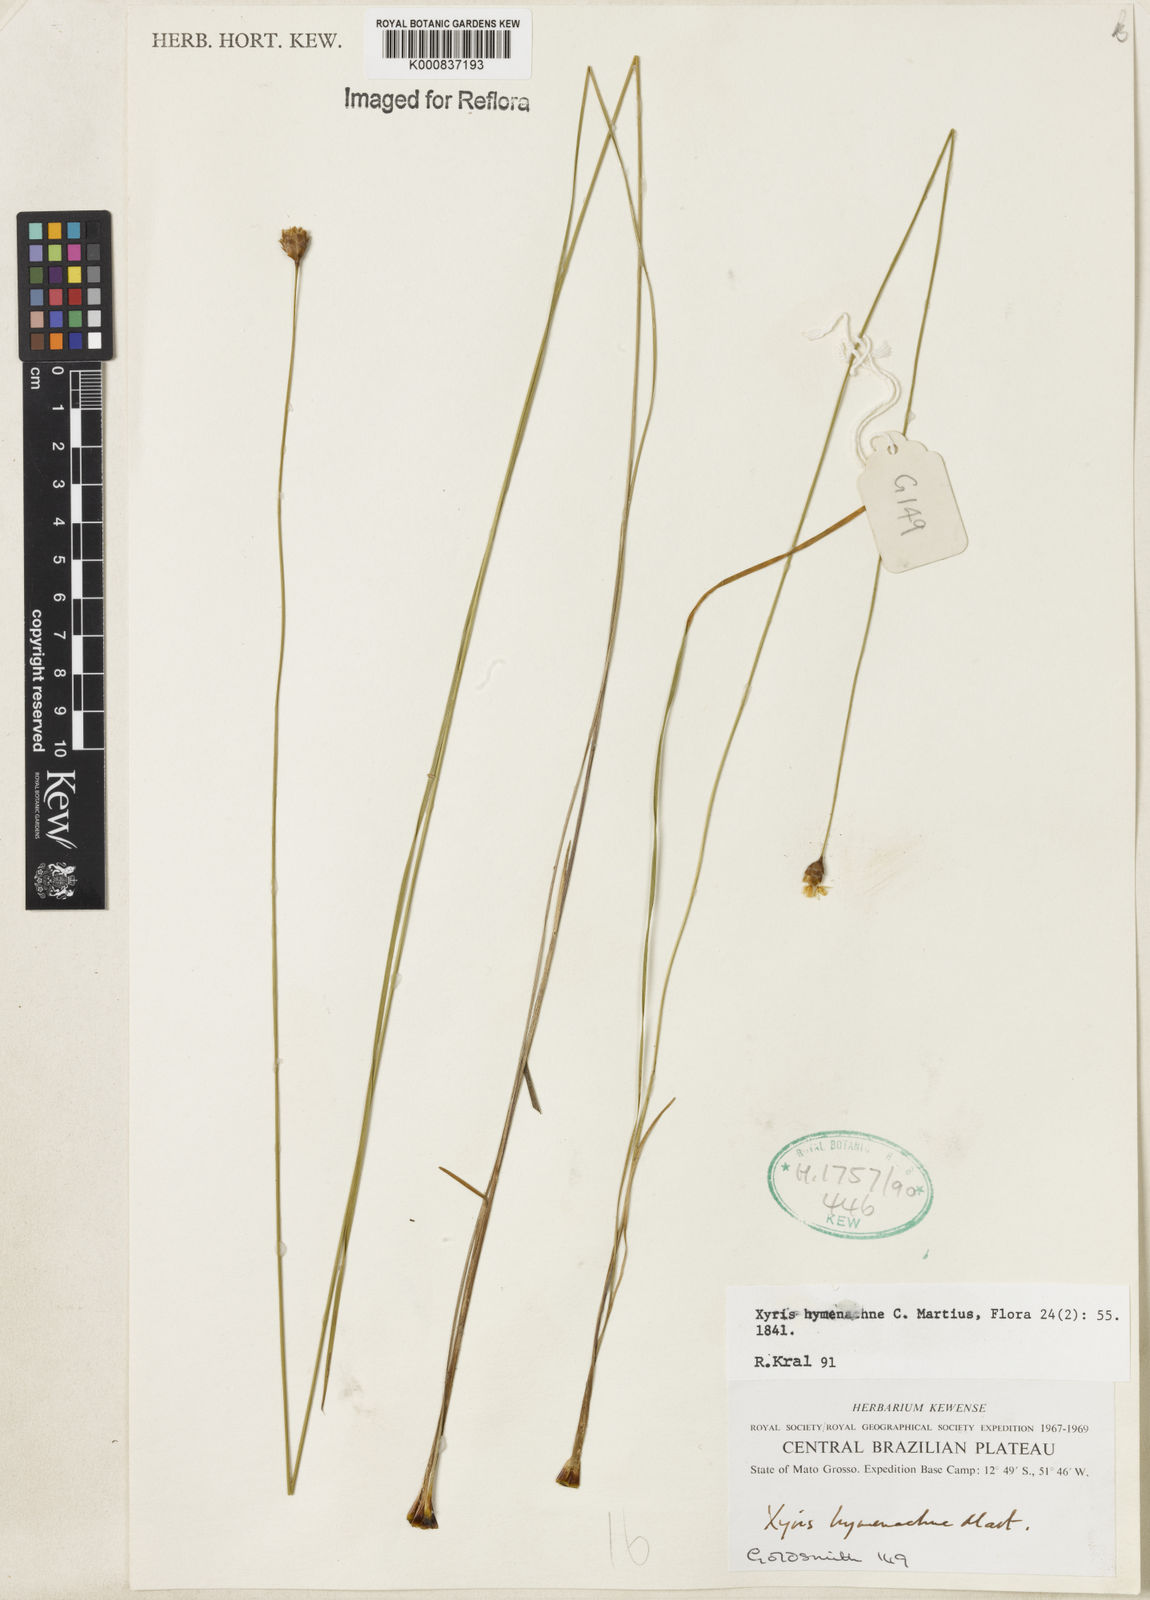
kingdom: Plantae
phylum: Tracheophyta
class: Liliopsida
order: Poales
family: Xyridaceae
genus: Xyris
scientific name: Xyris hymenachne
